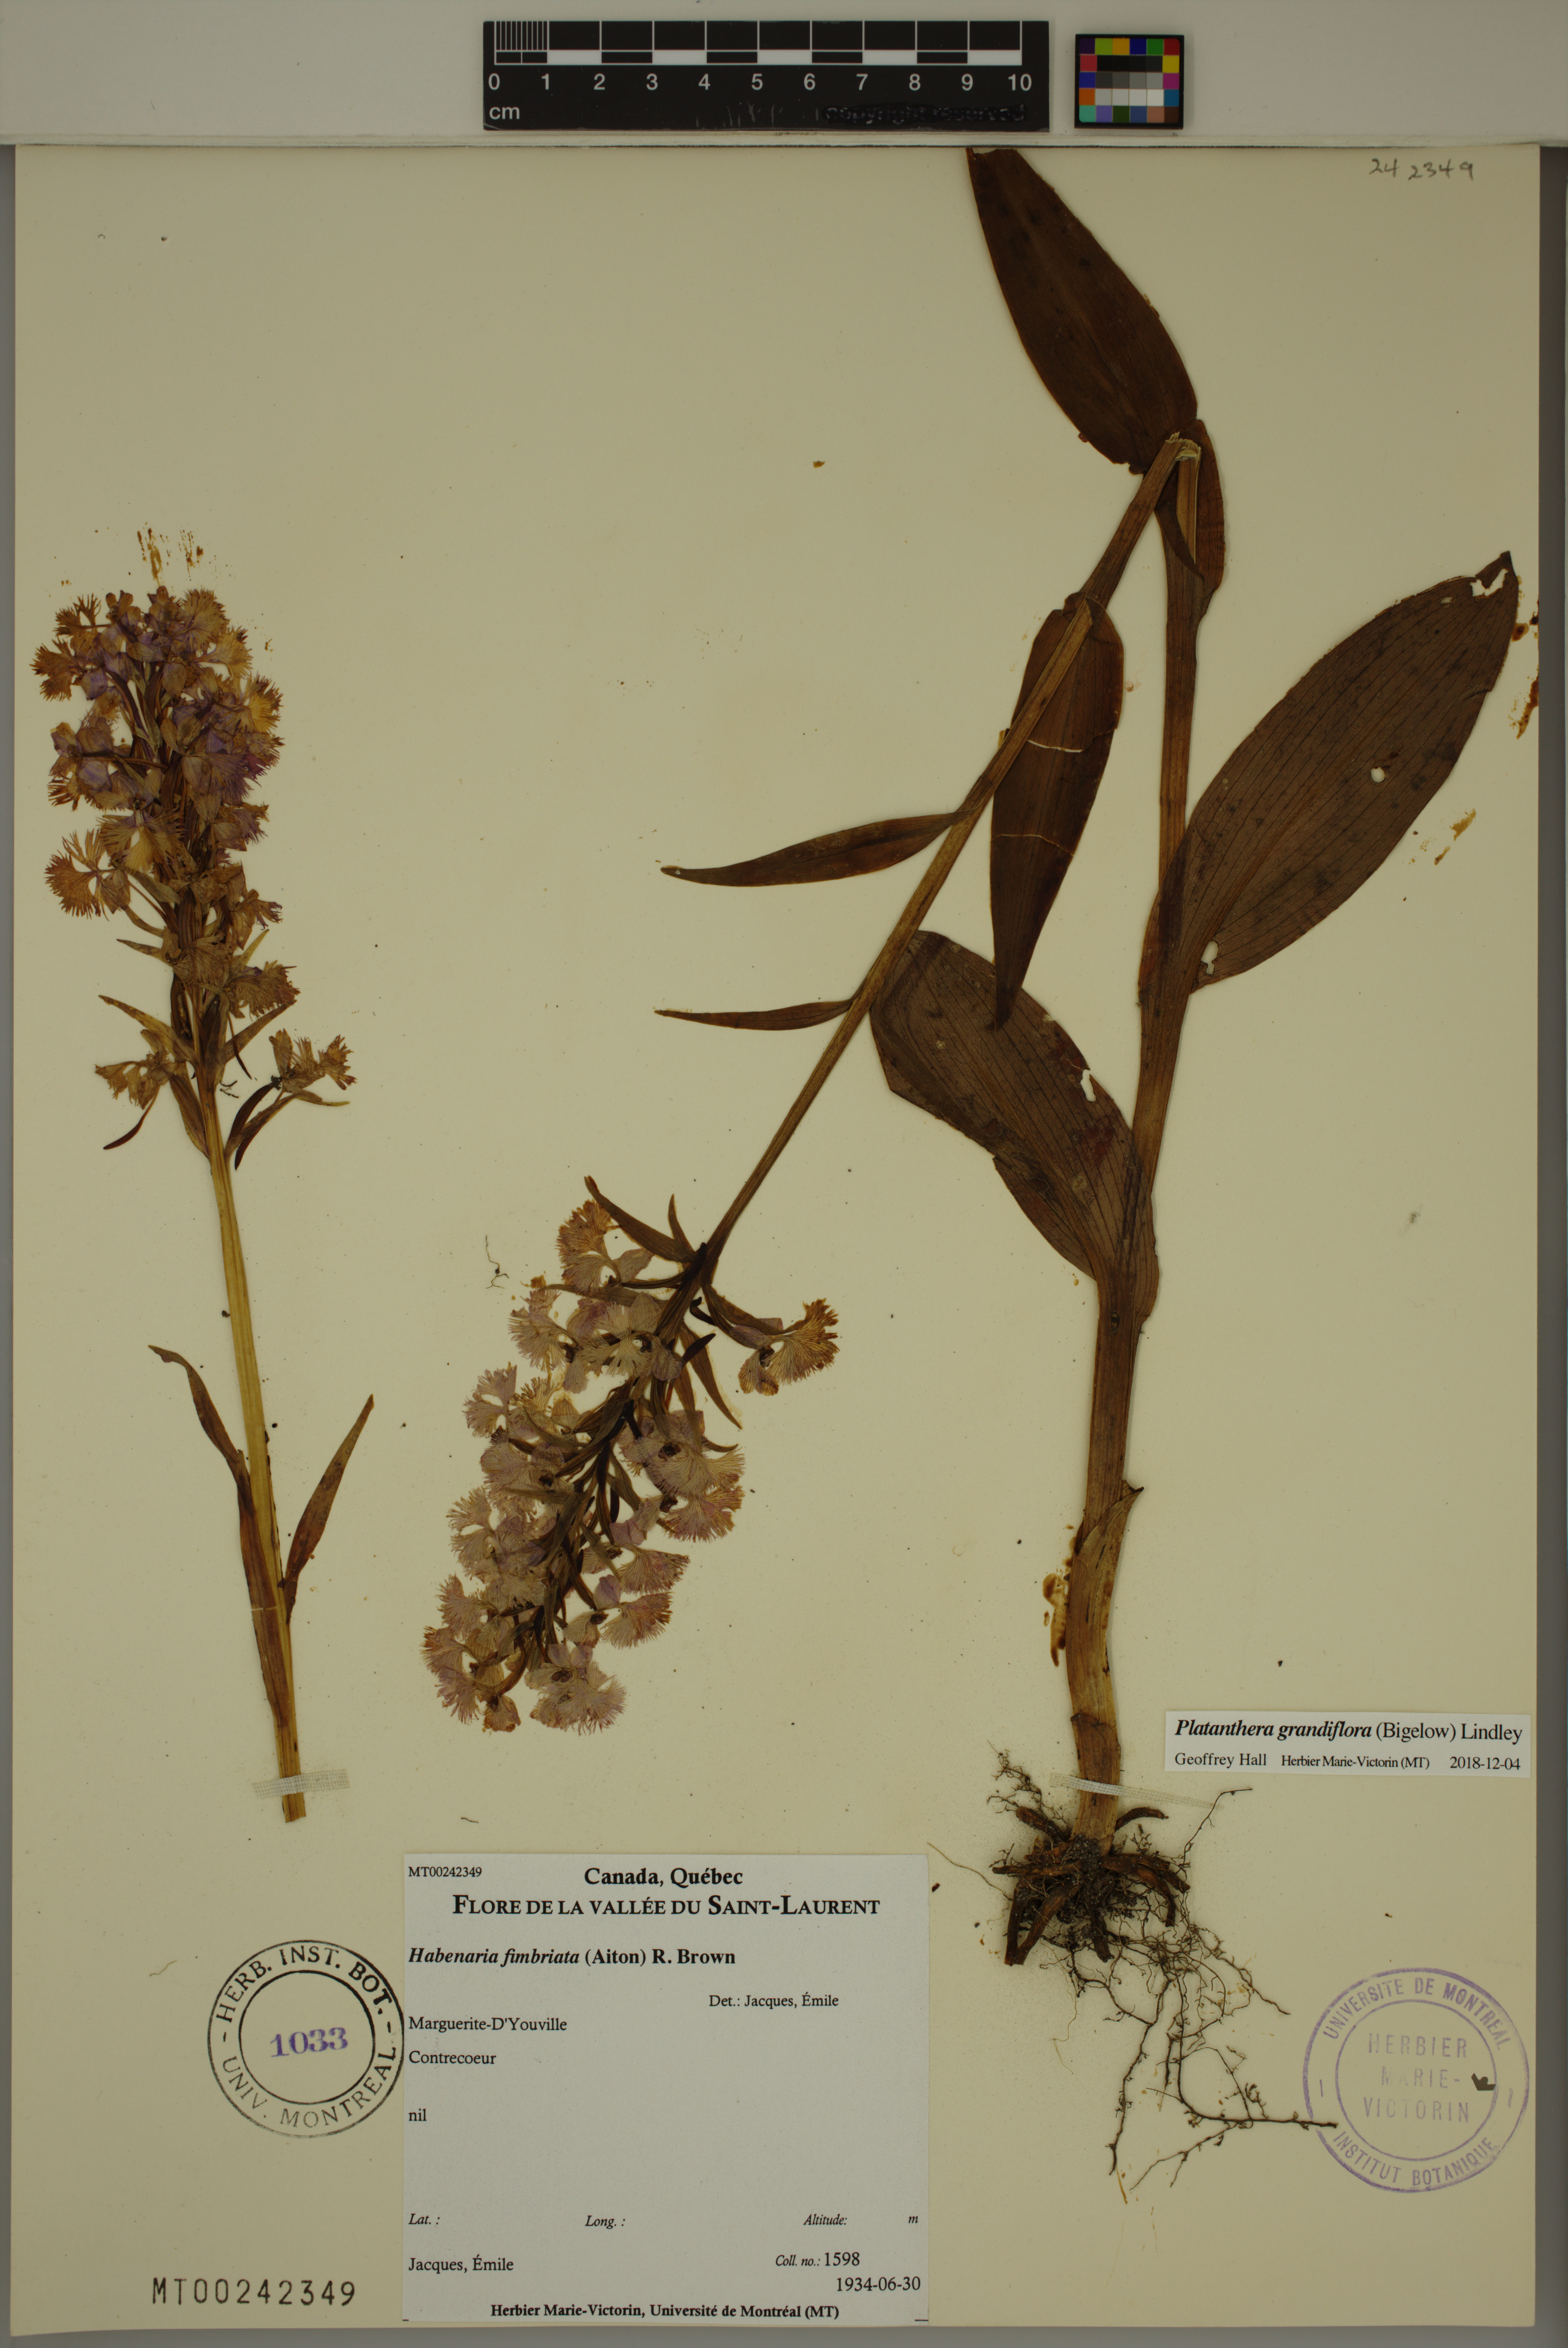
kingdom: Plantae
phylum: Tracheophyta
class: Liliopsida
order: Asparagales
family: Orchidaceae
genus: Platanthera
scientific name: Platanthera grandiflora
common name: Greater purple fringed orchid
